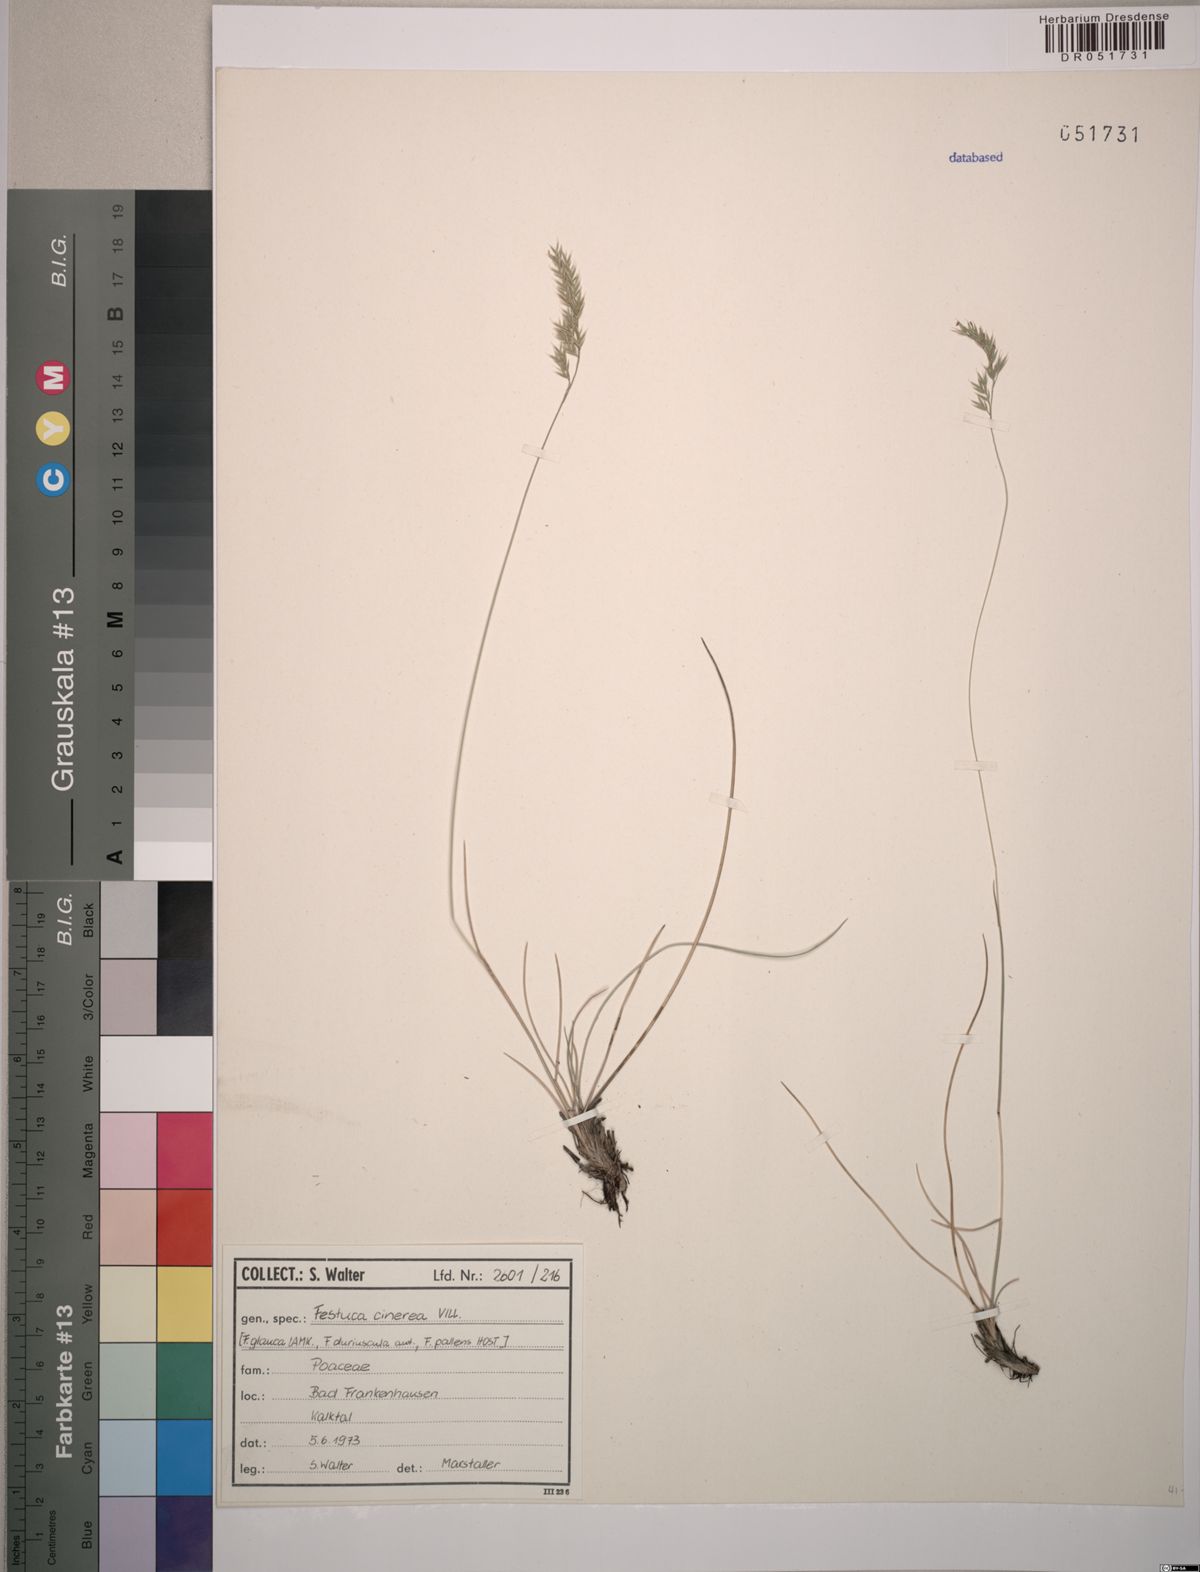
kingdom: Plantae
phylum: Tracheophyta
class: Liliopsida
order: Poales
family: Poaceae
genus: Festuca
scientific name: Festuca cinerea
